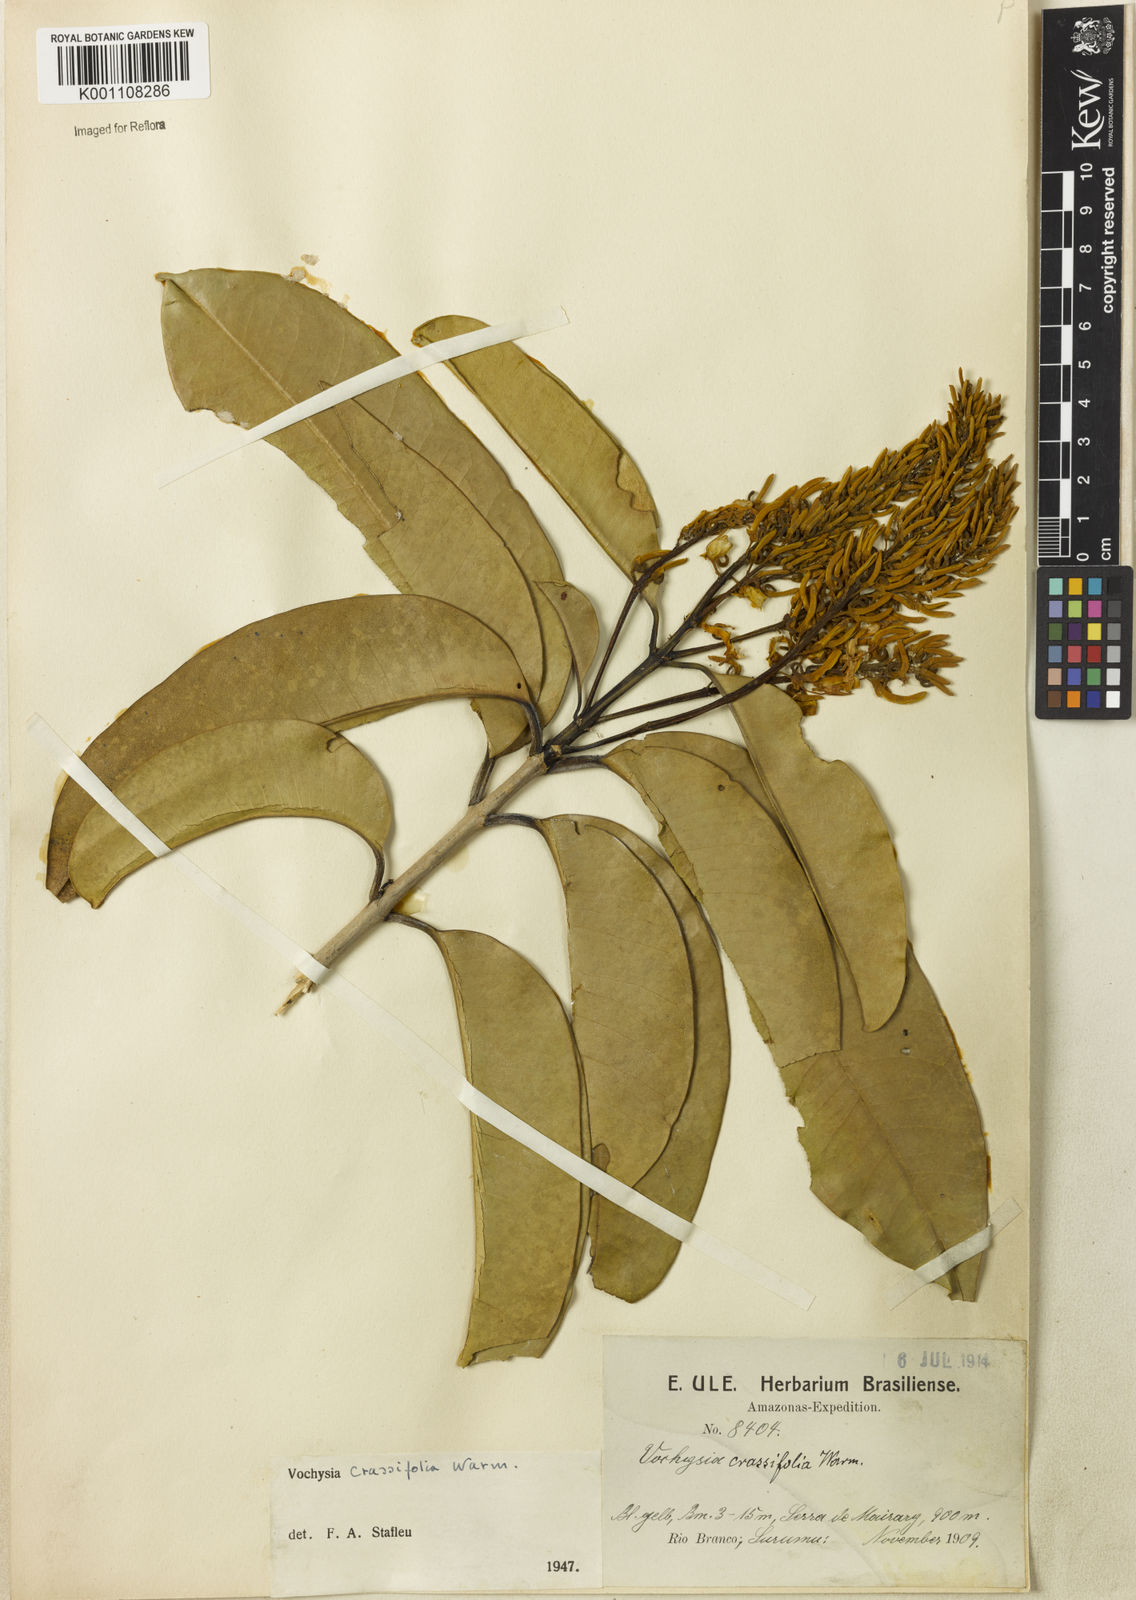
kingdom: Plantae
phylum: Tracheophyta
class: Magnoliopsida
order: Myrtales
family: Vochysiaceae
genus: Vochysia
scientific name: Vochysia crassifolia
